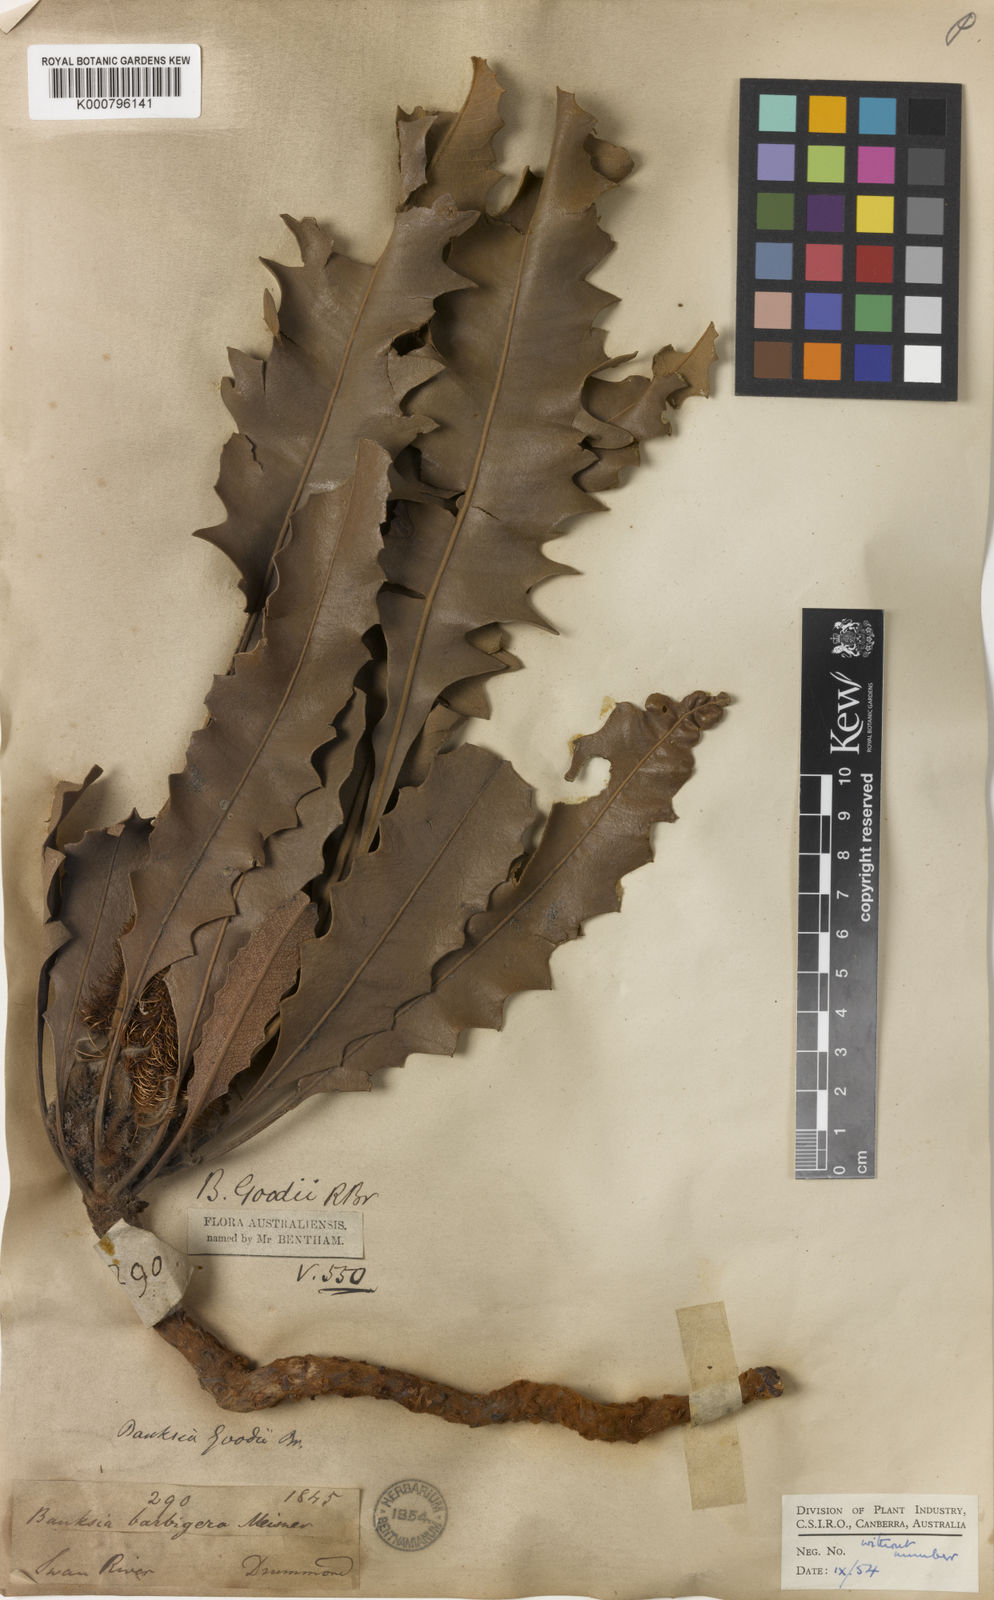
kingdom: Plantae
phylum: Tracheophyta
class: Magnoliopsida
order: Proteales
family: Proteaceae
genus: Banksia
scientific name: Banksia goodii
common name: Good’s banksia
